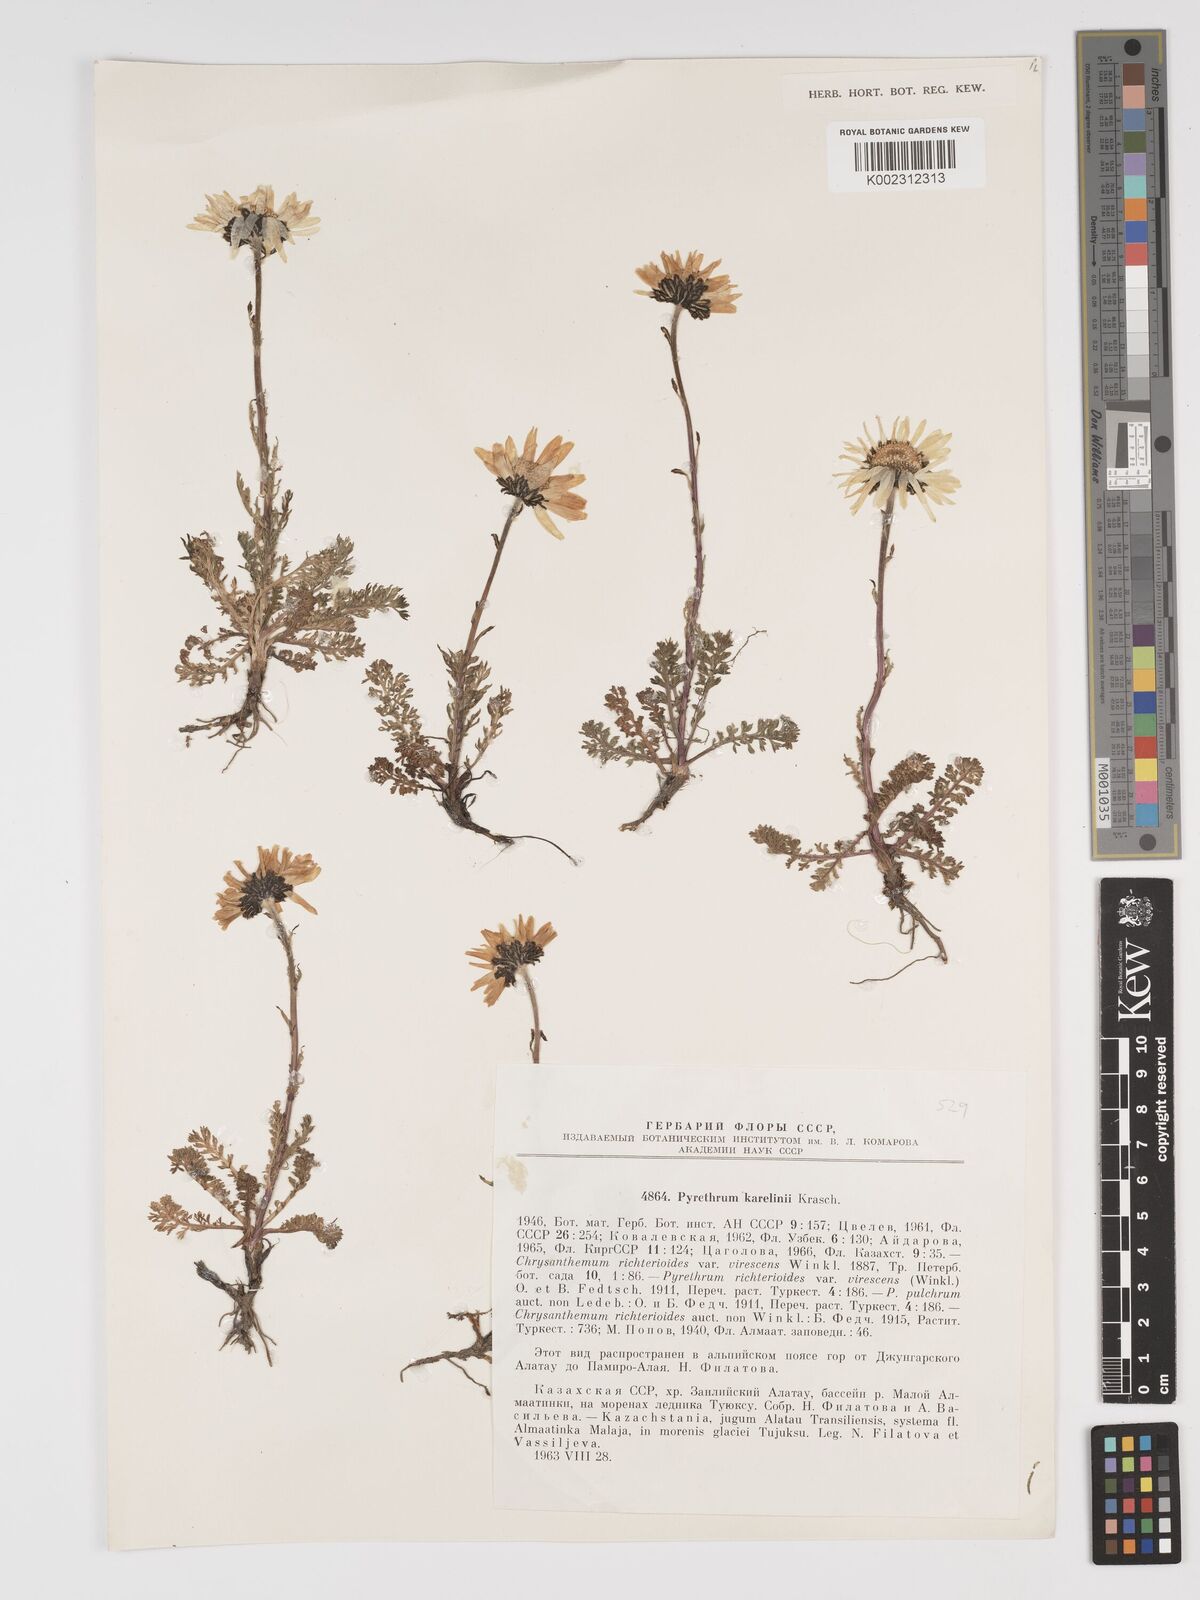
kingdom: Plantae
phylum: Tracheophyta
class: Magnoliopsida
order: Asterales
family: Asteraceae
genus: Tanacetum
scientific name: Tanacetum karelinii
